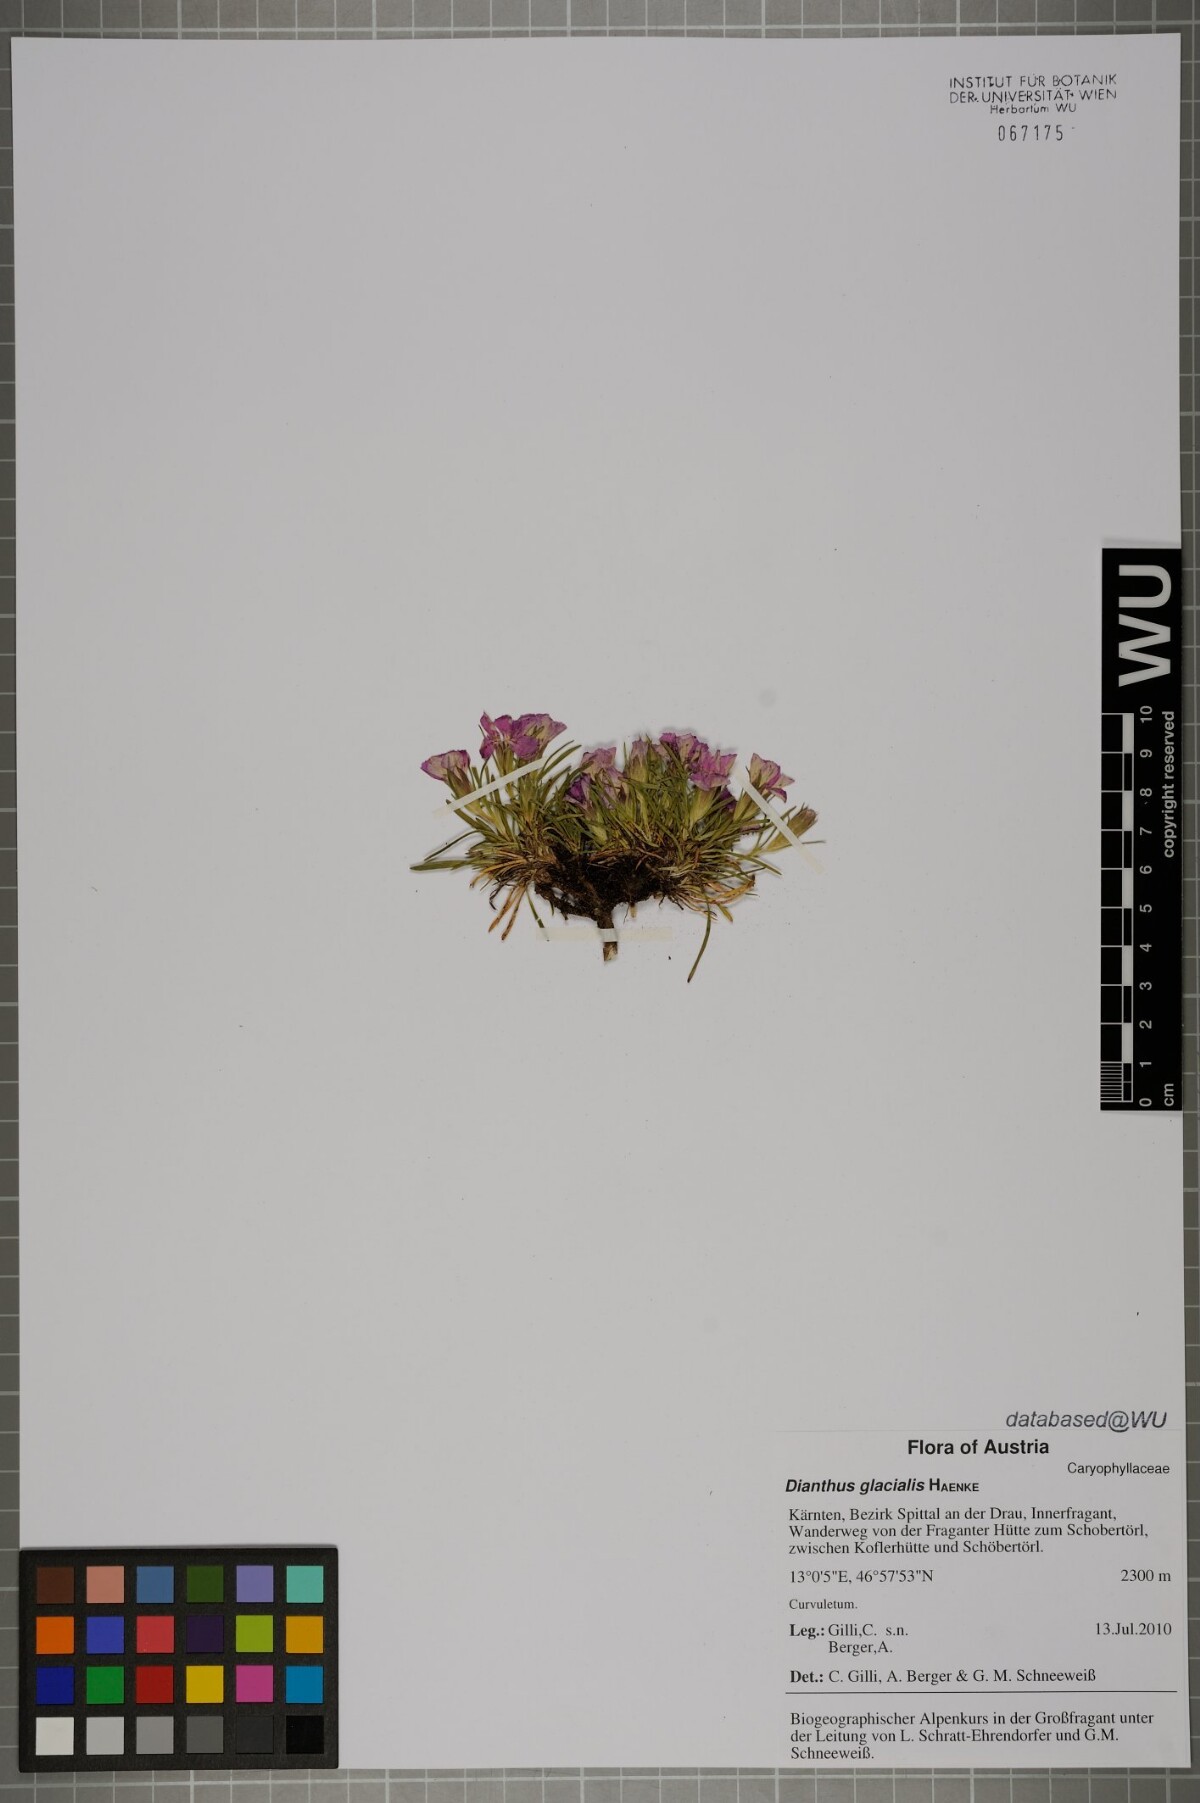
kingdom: Plantae
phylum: Tracheophyta
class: Magnoliopsida
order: Caryophyllales
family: Caryophyllaceae
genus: Dianthus
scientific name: Dianthus glacialis
